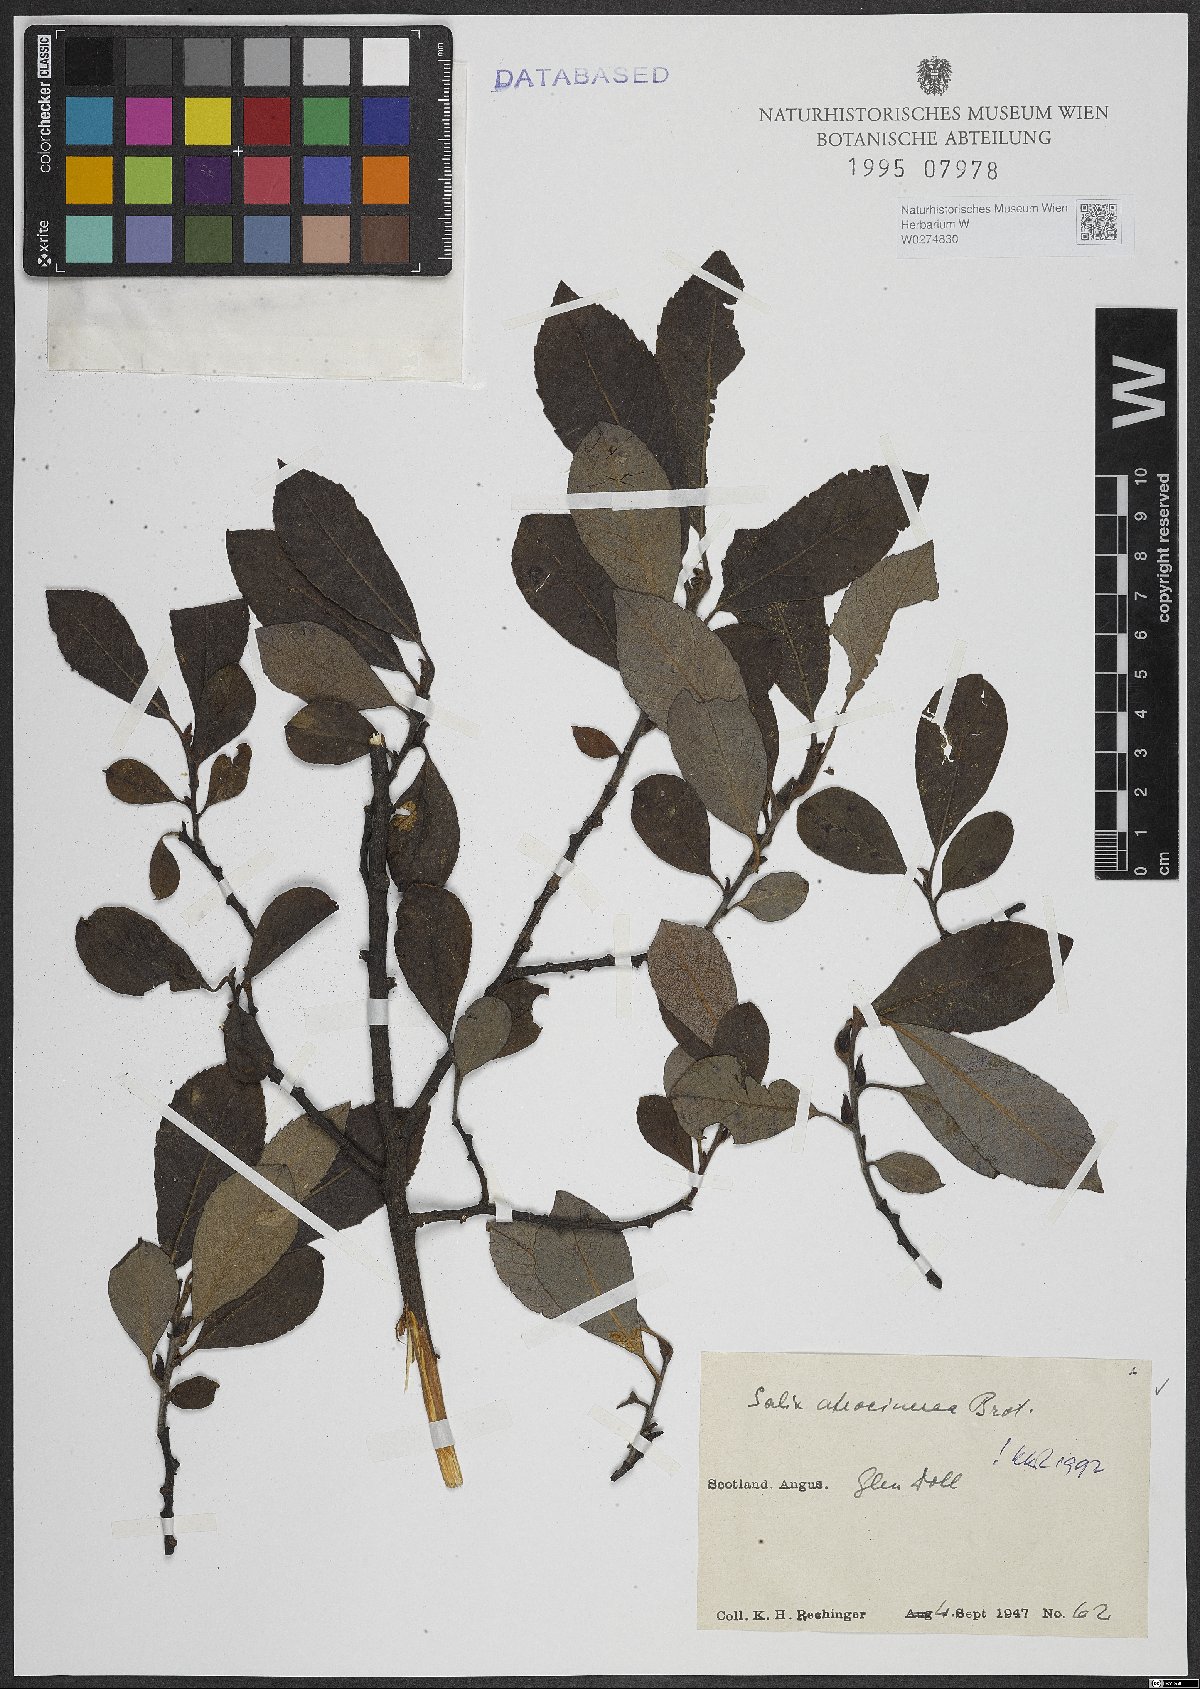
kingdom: Plantae
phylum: Tracheophyta
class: Magnoliopsida
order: Malpighiales
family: Salicaceae
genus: Salix
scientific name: Salix atrocinerea
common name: Rusty willow
